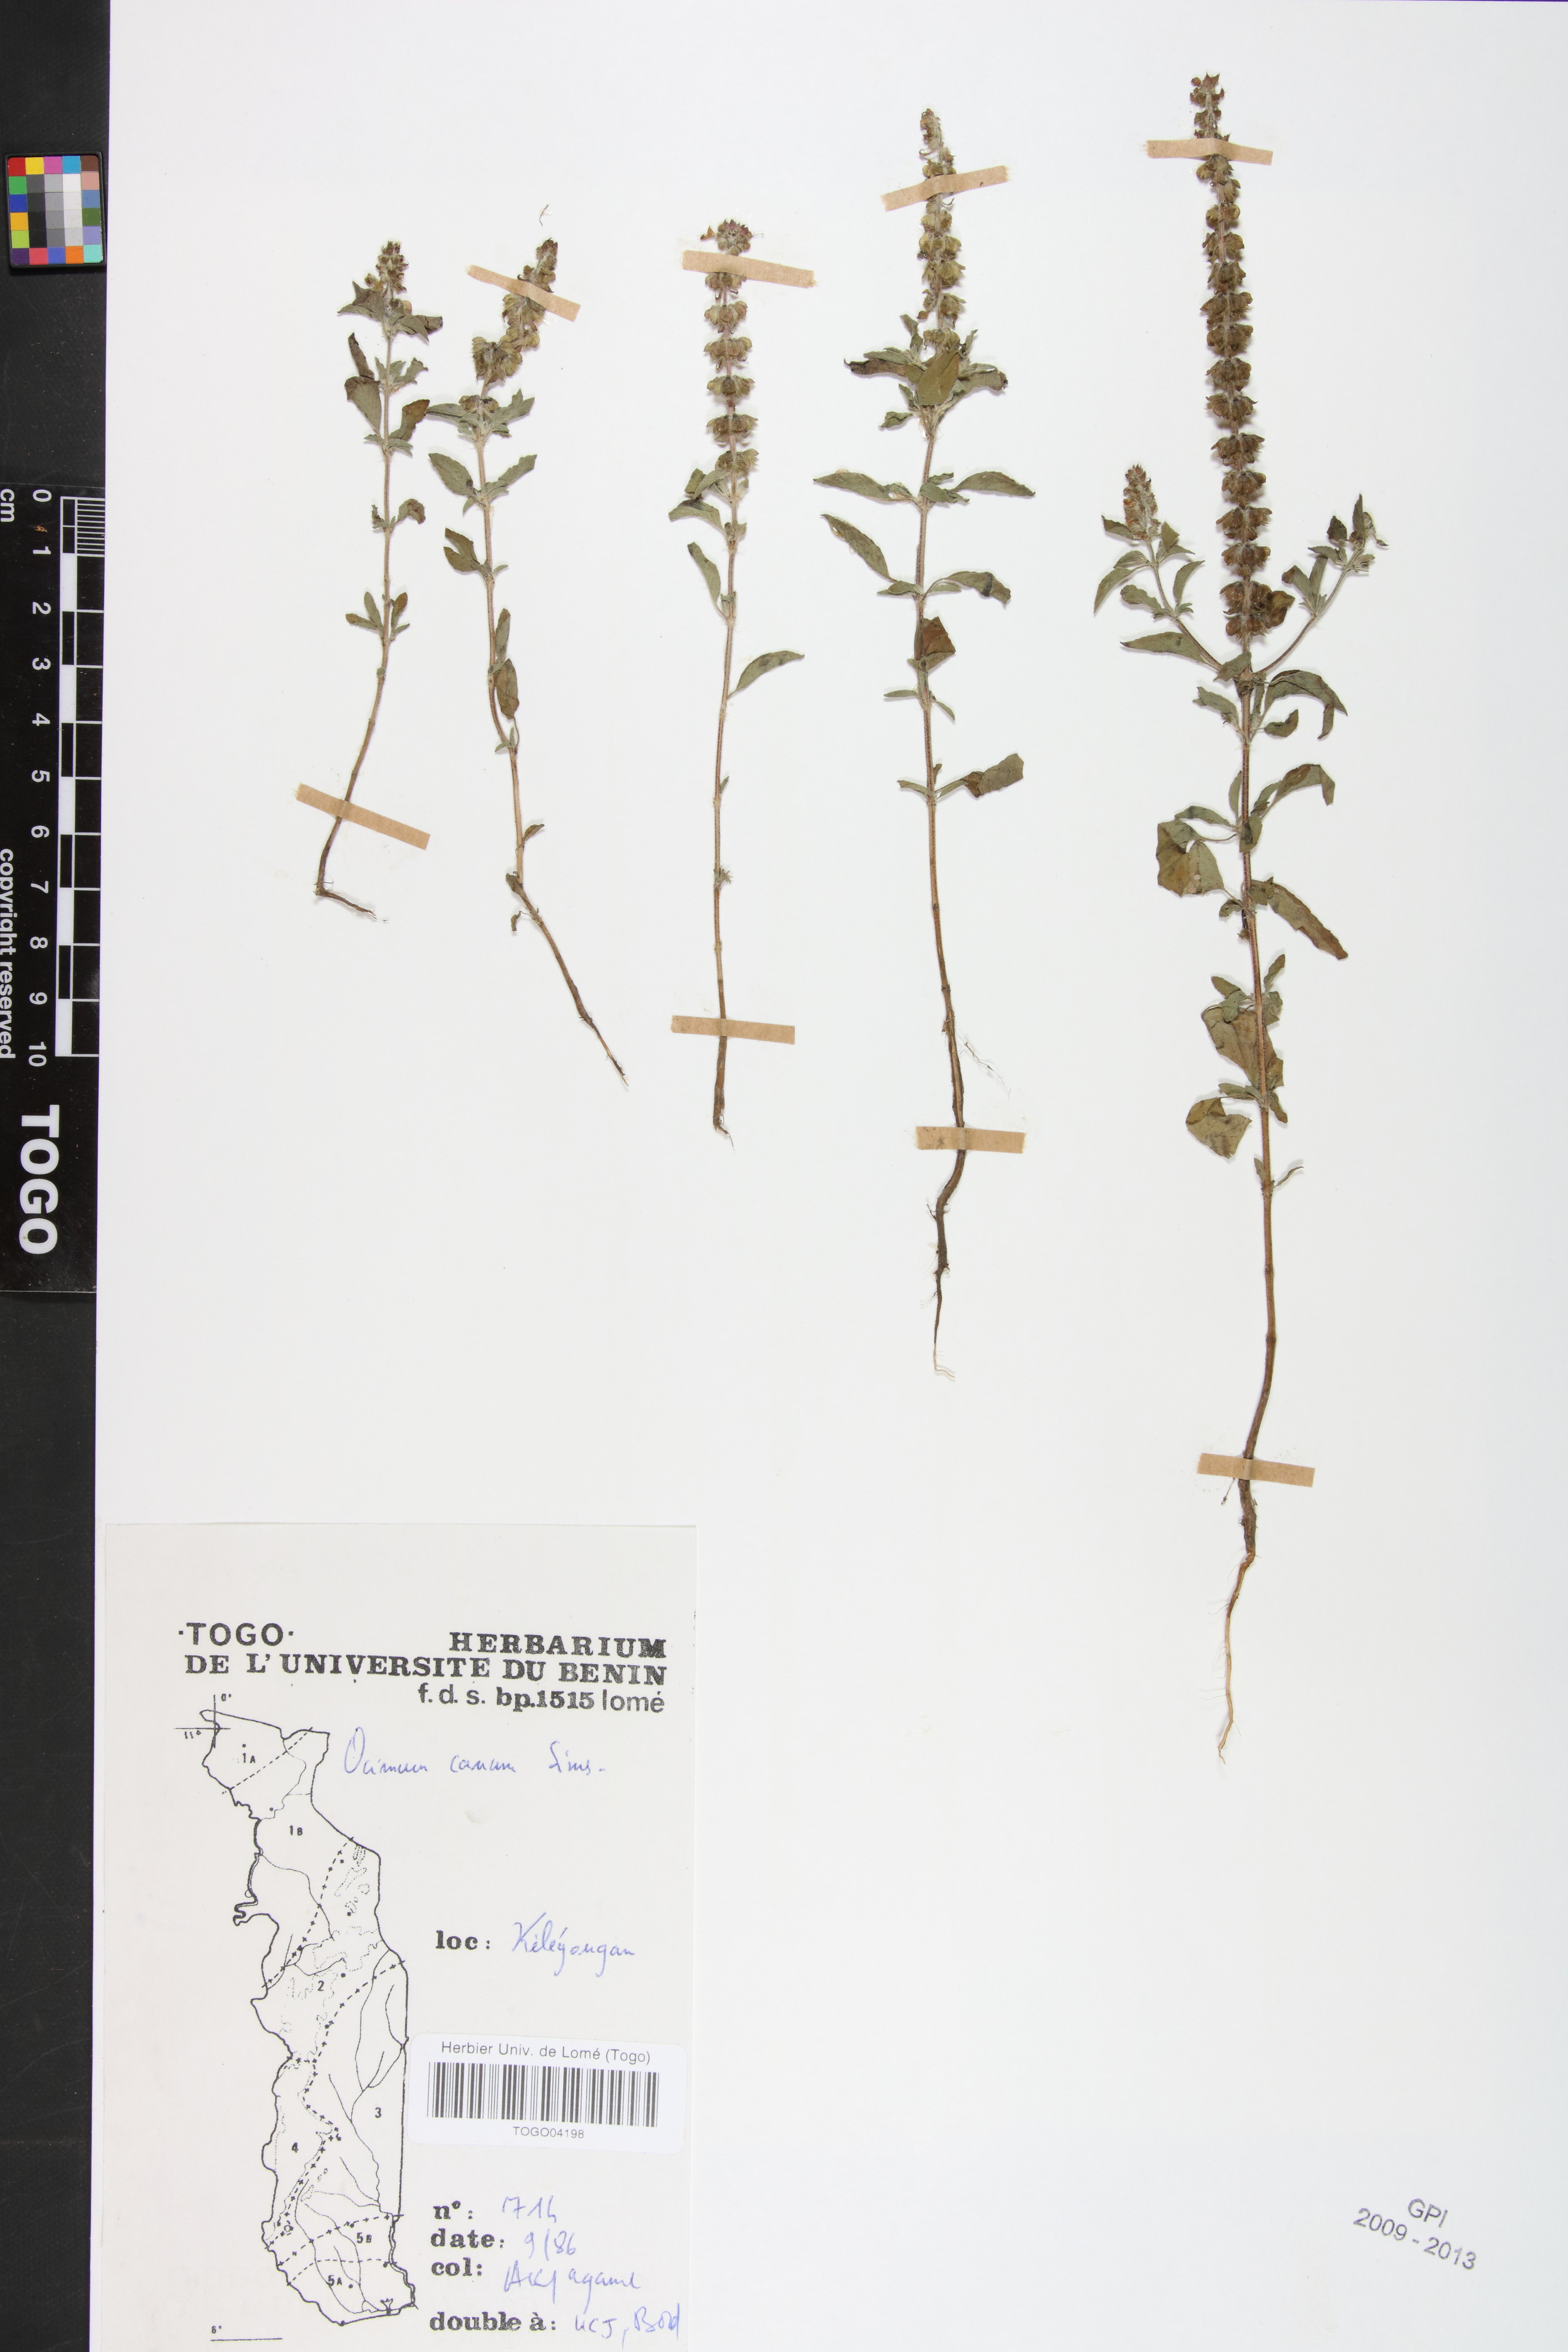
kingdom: Plantae
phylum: Tracheophyta
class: Magnoliopsida
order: Lamiales
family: Lamiaceae
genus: Ocimum
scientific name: Ocimum americanum
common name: American basil
